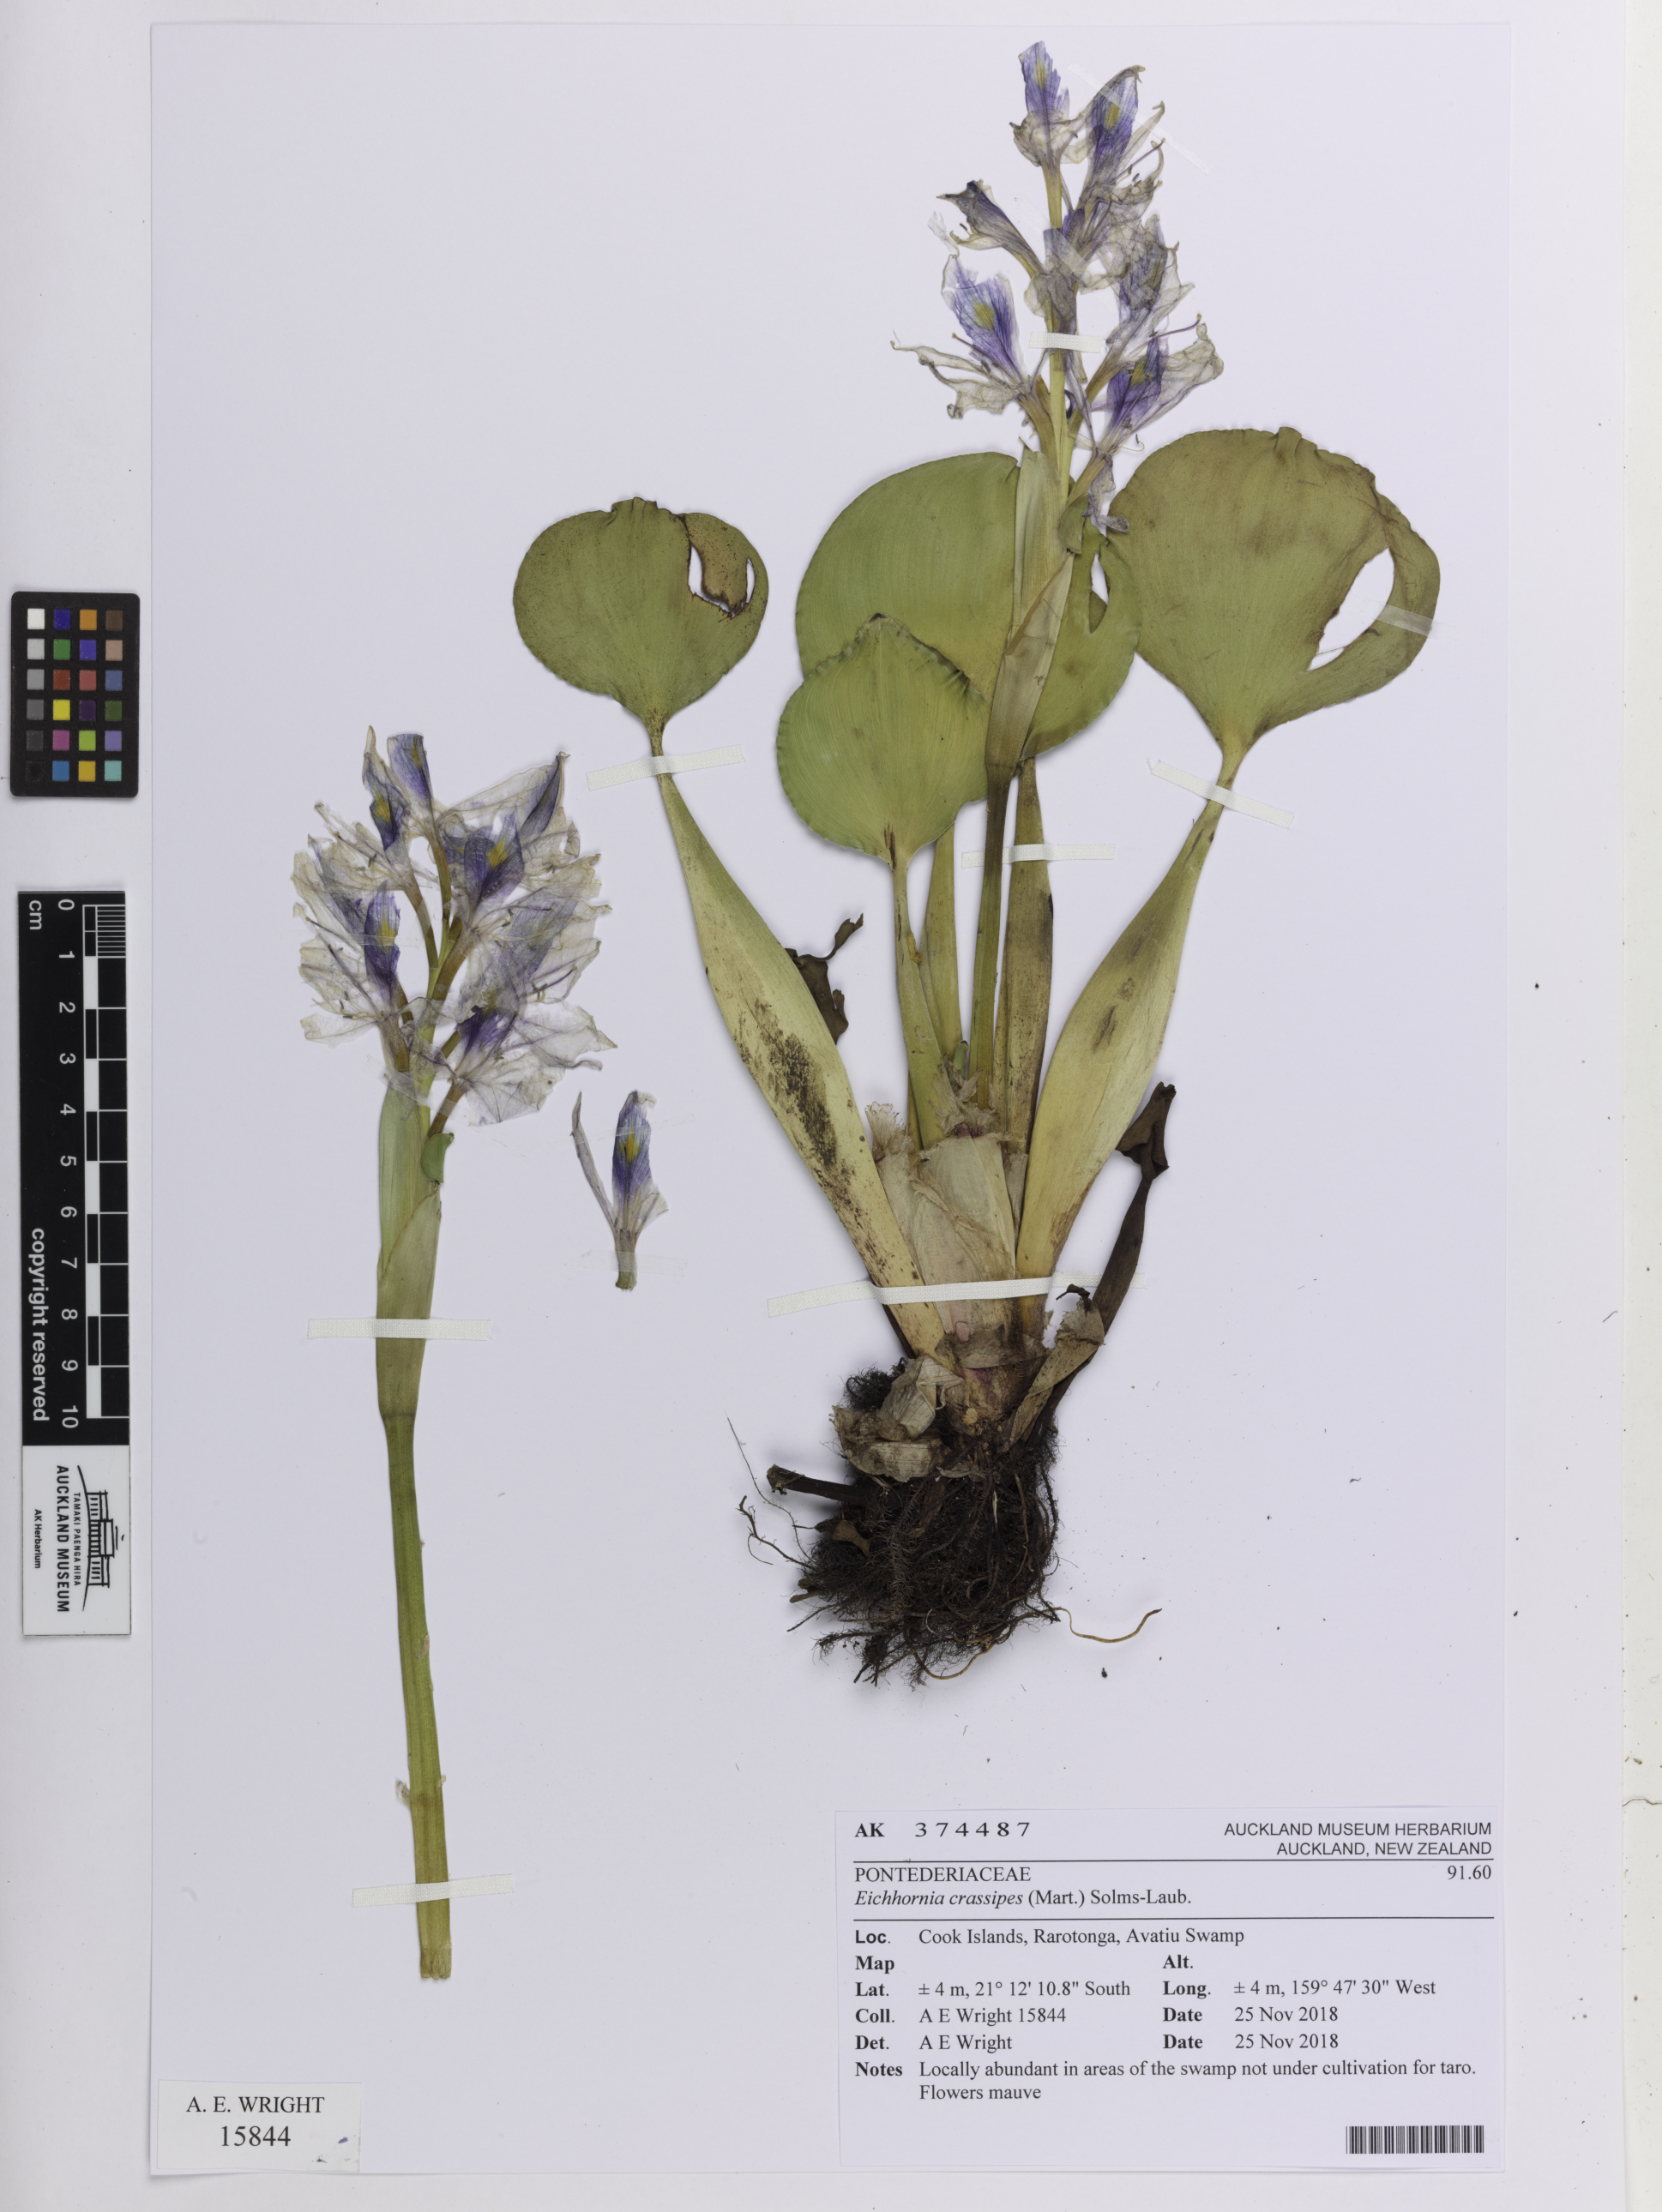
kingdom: Plantae
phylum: Tracheophyta
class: Liliopsida
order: Commelinales
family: Pontederiaceae
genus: Pontederia
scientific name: Pontederia crassipes
